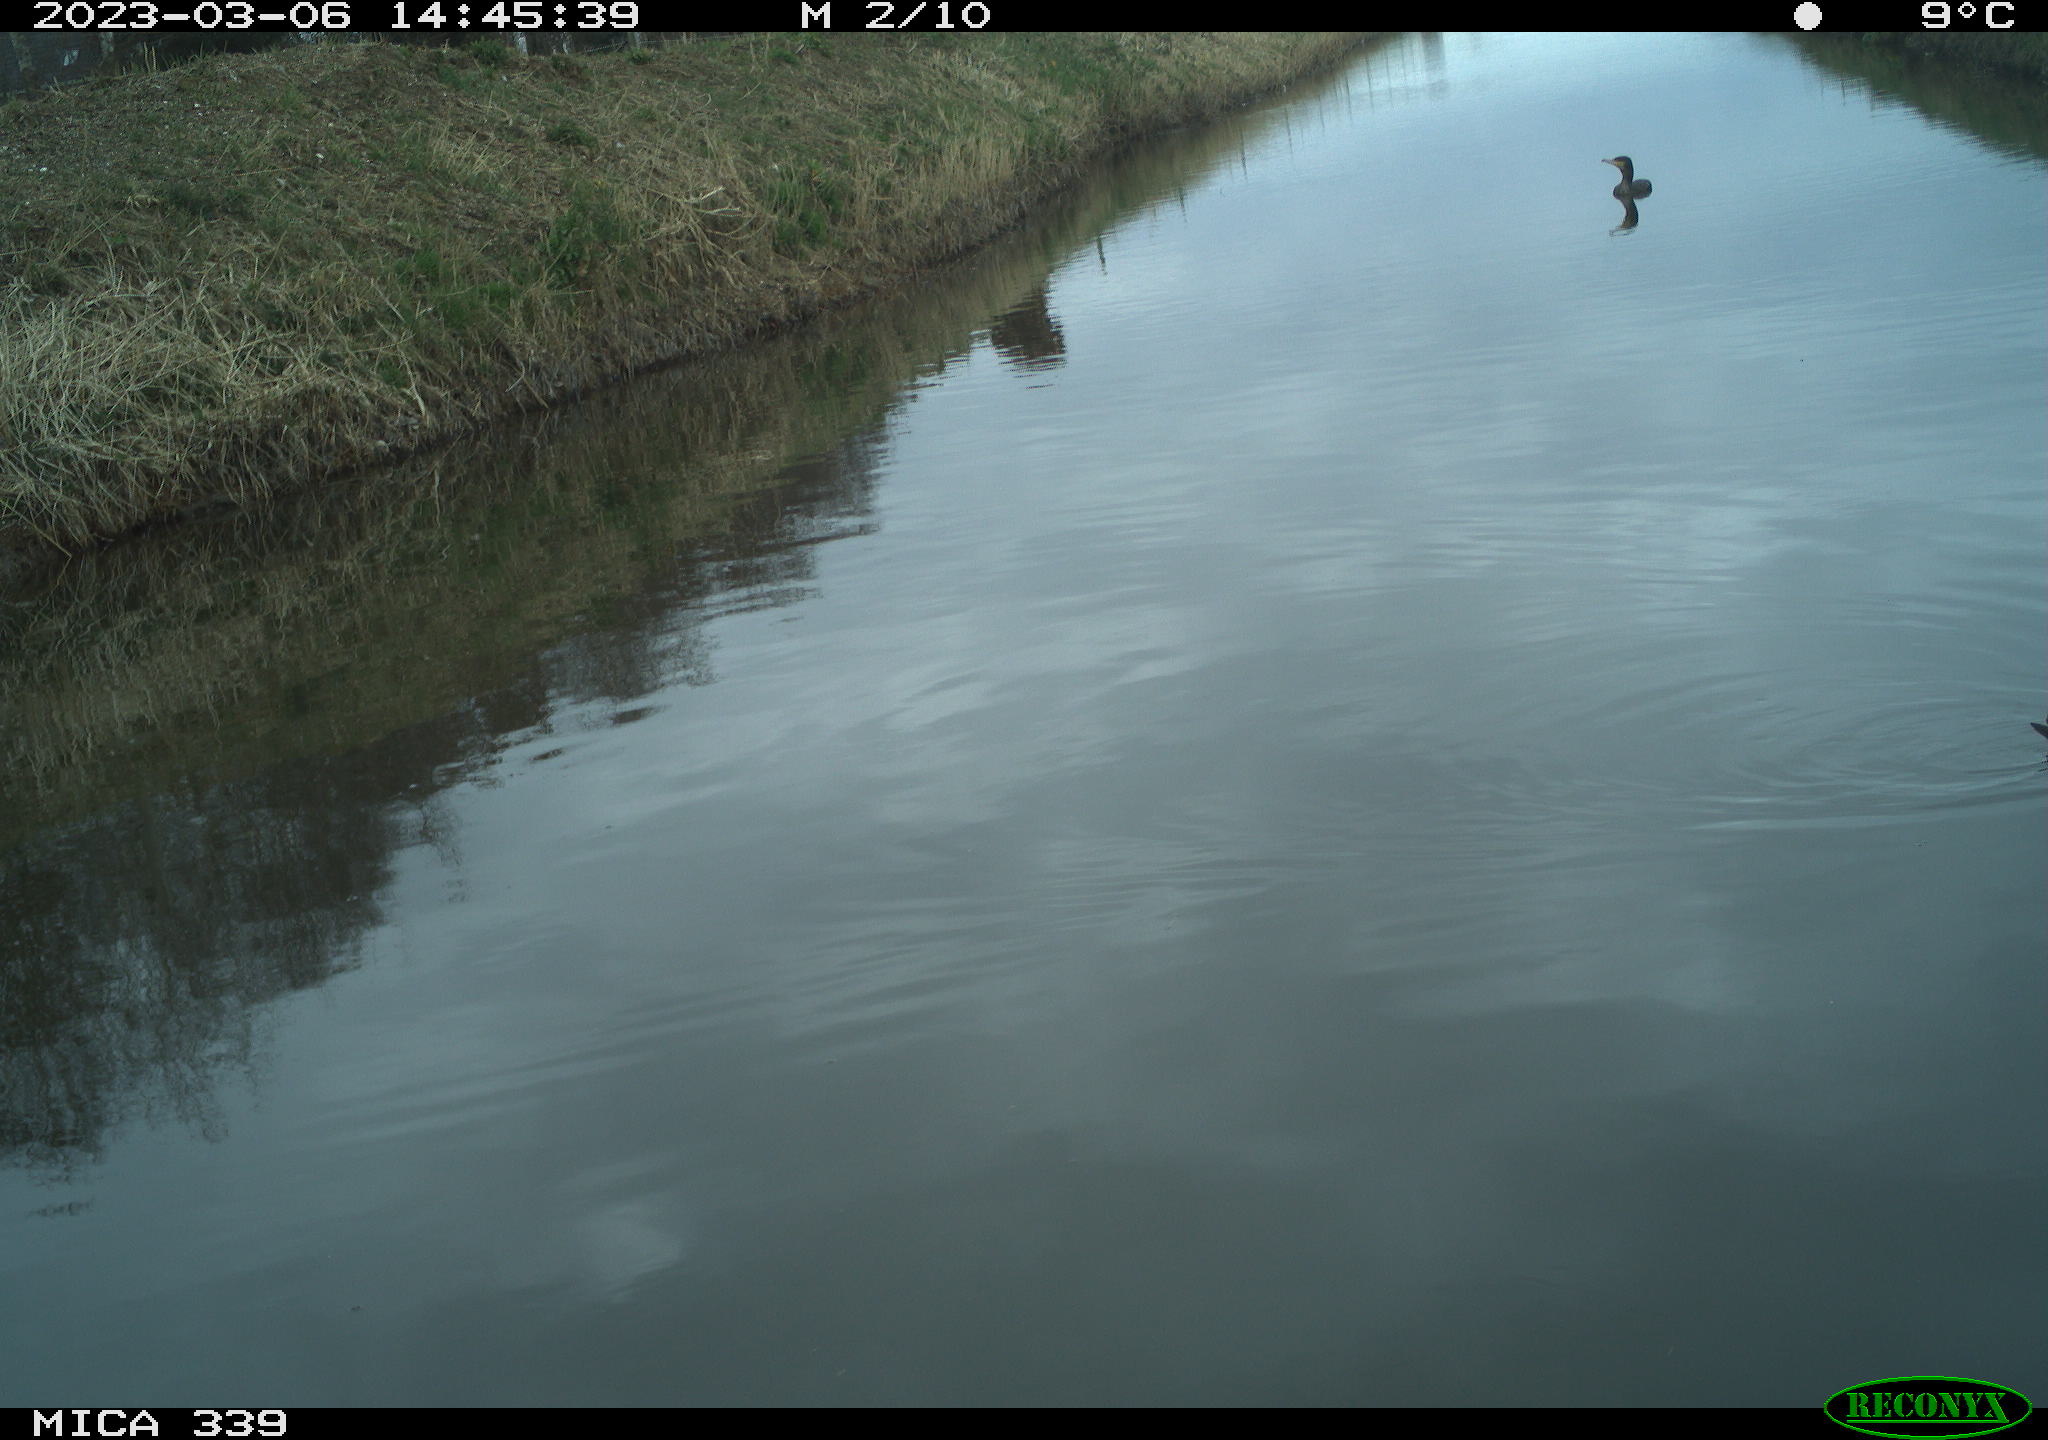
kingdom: Animalia
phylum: Chordata
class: Aves
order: Suliformes
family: Phalacrocoracidae
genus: Phalacrocorax
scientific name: Phalacrocorax carbo
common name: Great cormorant
